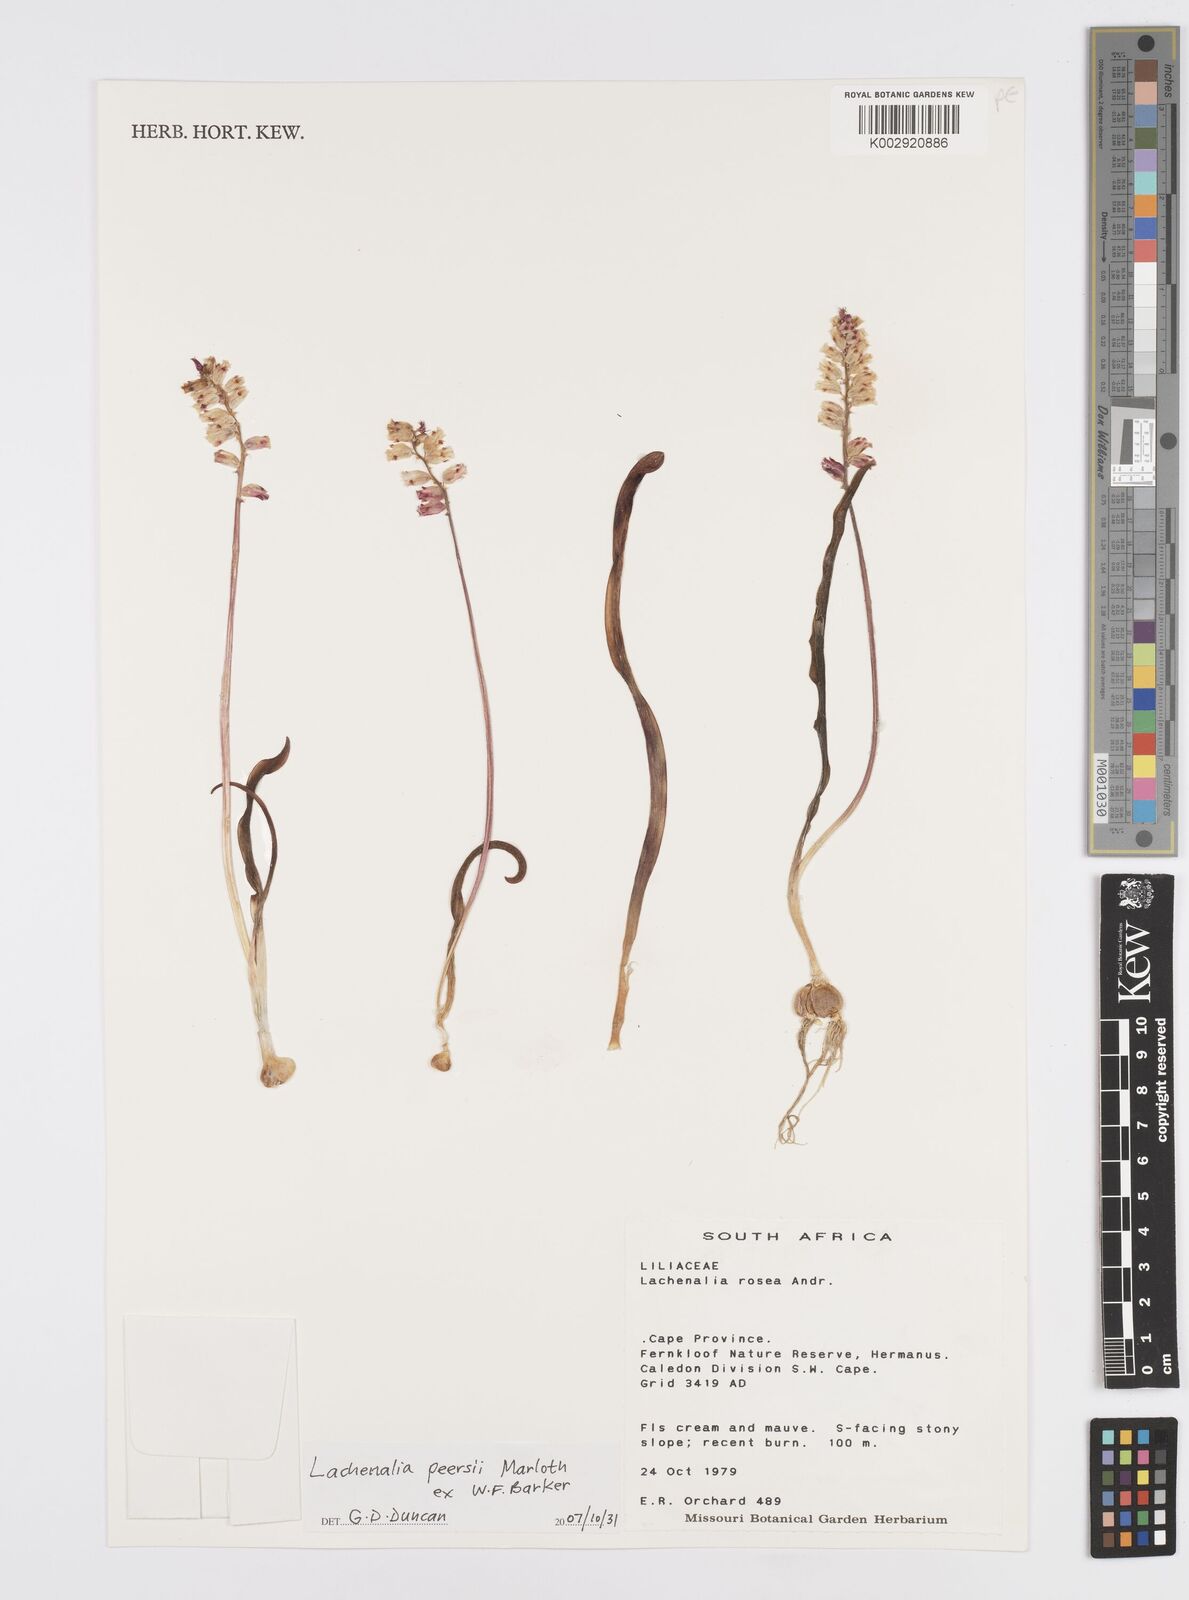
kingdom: Plantae
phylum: Tracheophyta
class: Liliopsida
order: Asparagales
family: Asparagaceae
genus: Lachenalia
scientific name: Lachenalia peersii
